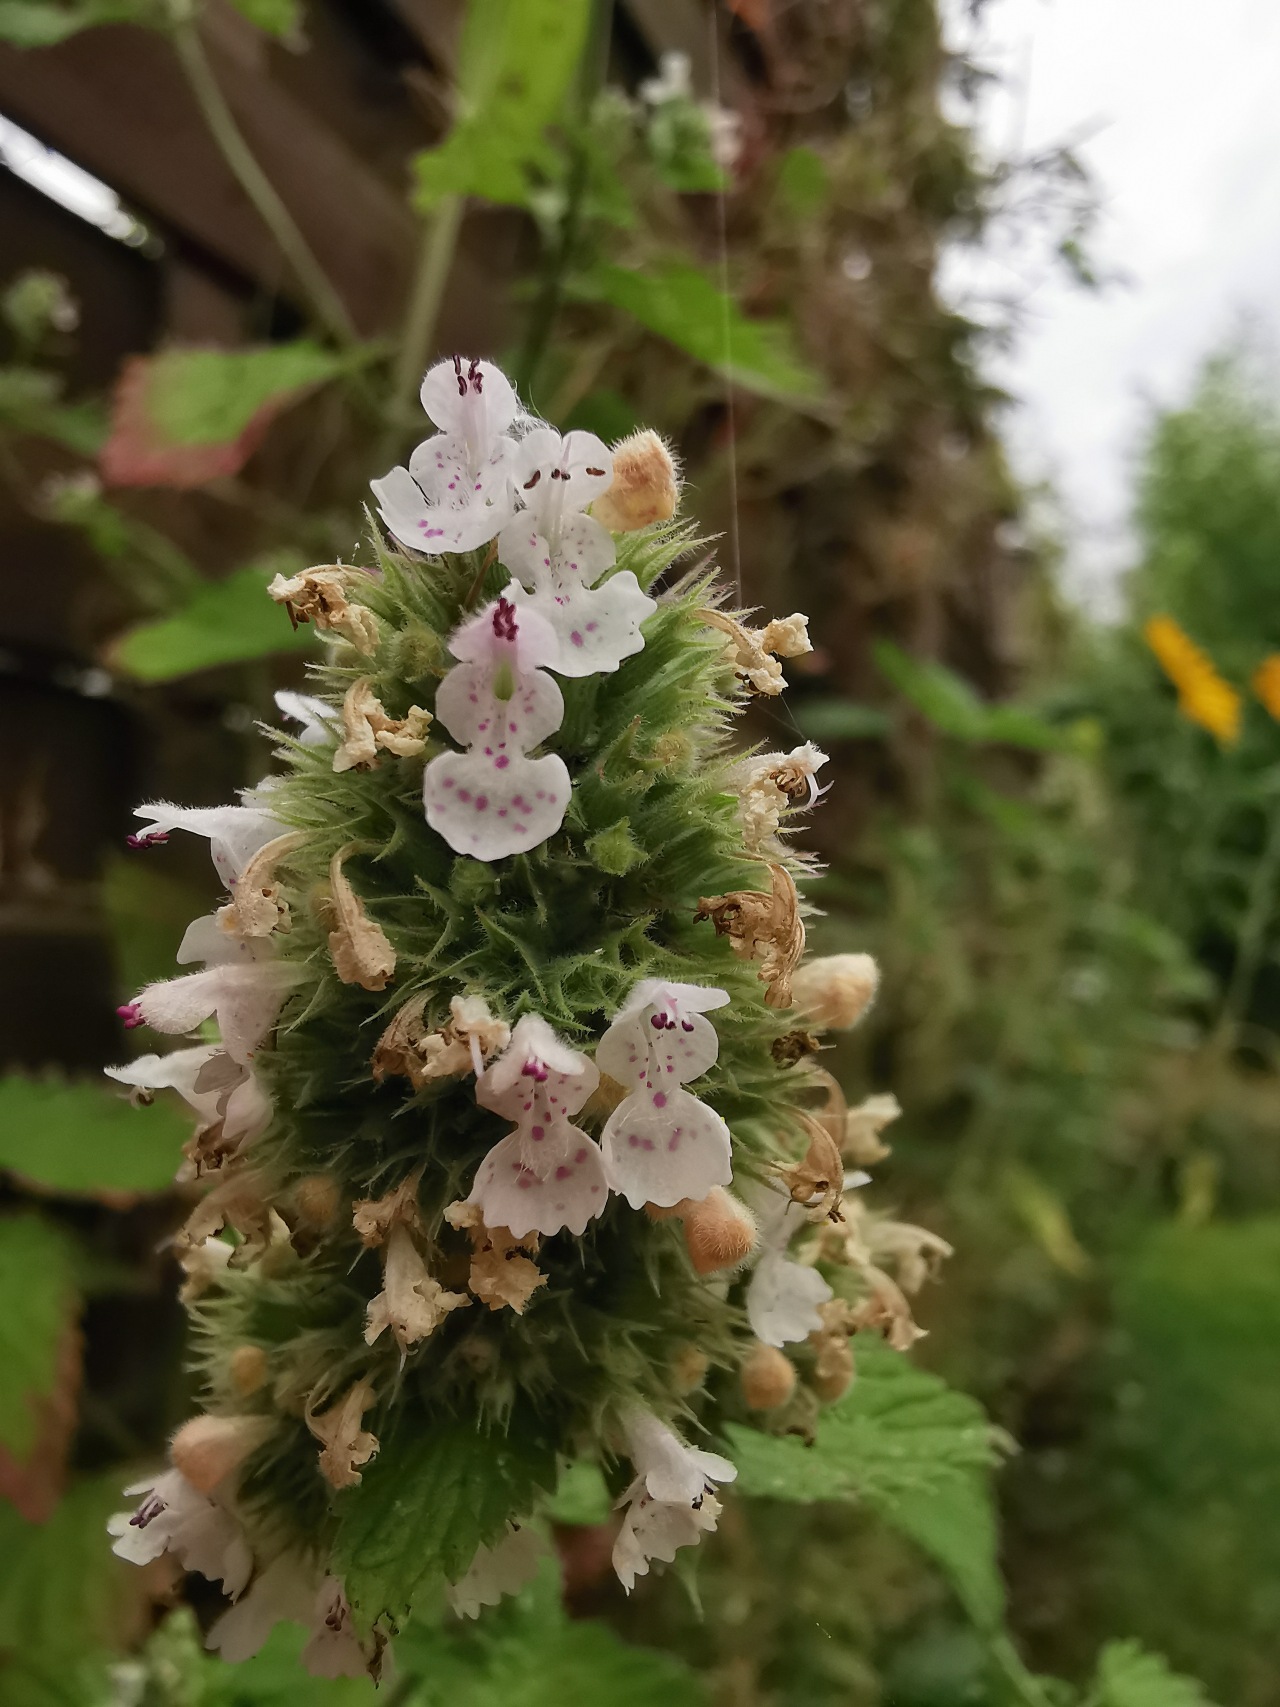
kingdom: Plantae
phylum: Tracheophyta
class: Magnoliopsida
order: Lamiales
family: Lamiaceae
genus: Nepeta
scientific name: Nepeta cataria
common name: Katteurt
